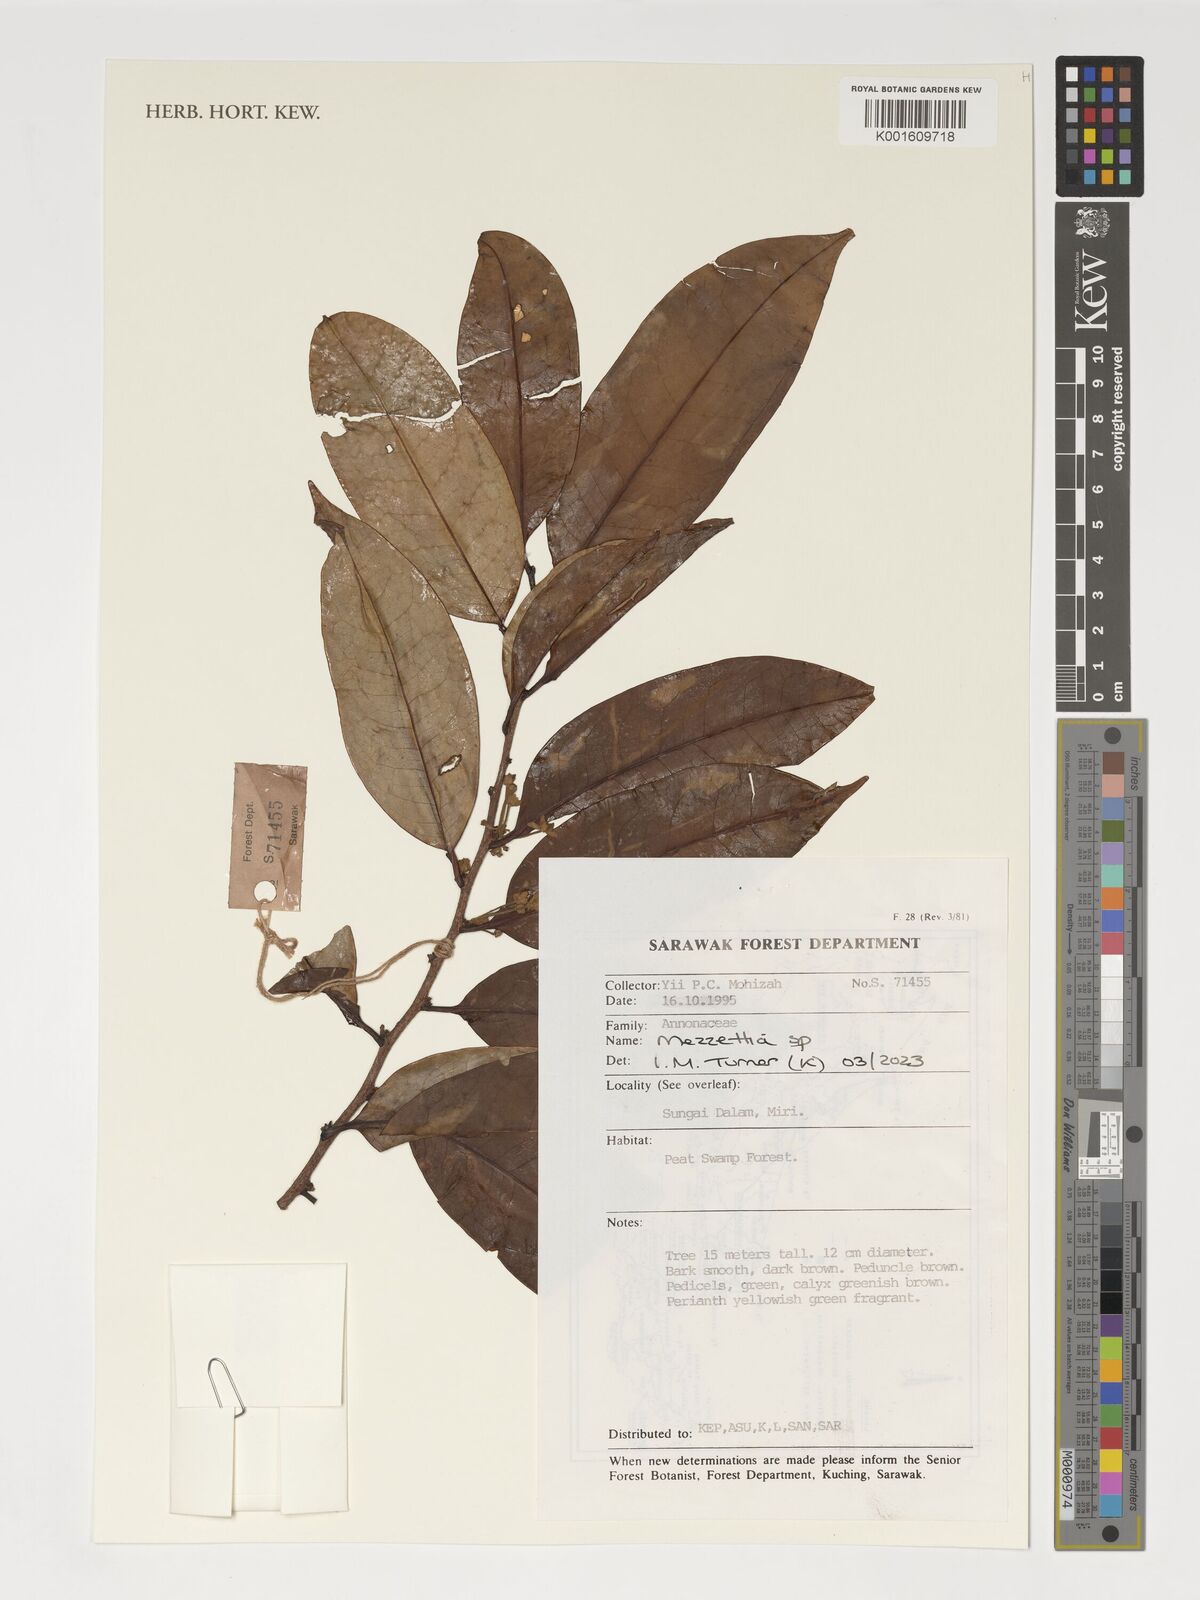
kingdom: Plantae
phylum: Tracheophyta
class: Magnoliopsida
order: Magnoliales
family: Annonaceae
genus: Mezzettia
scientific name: Mezzettia
